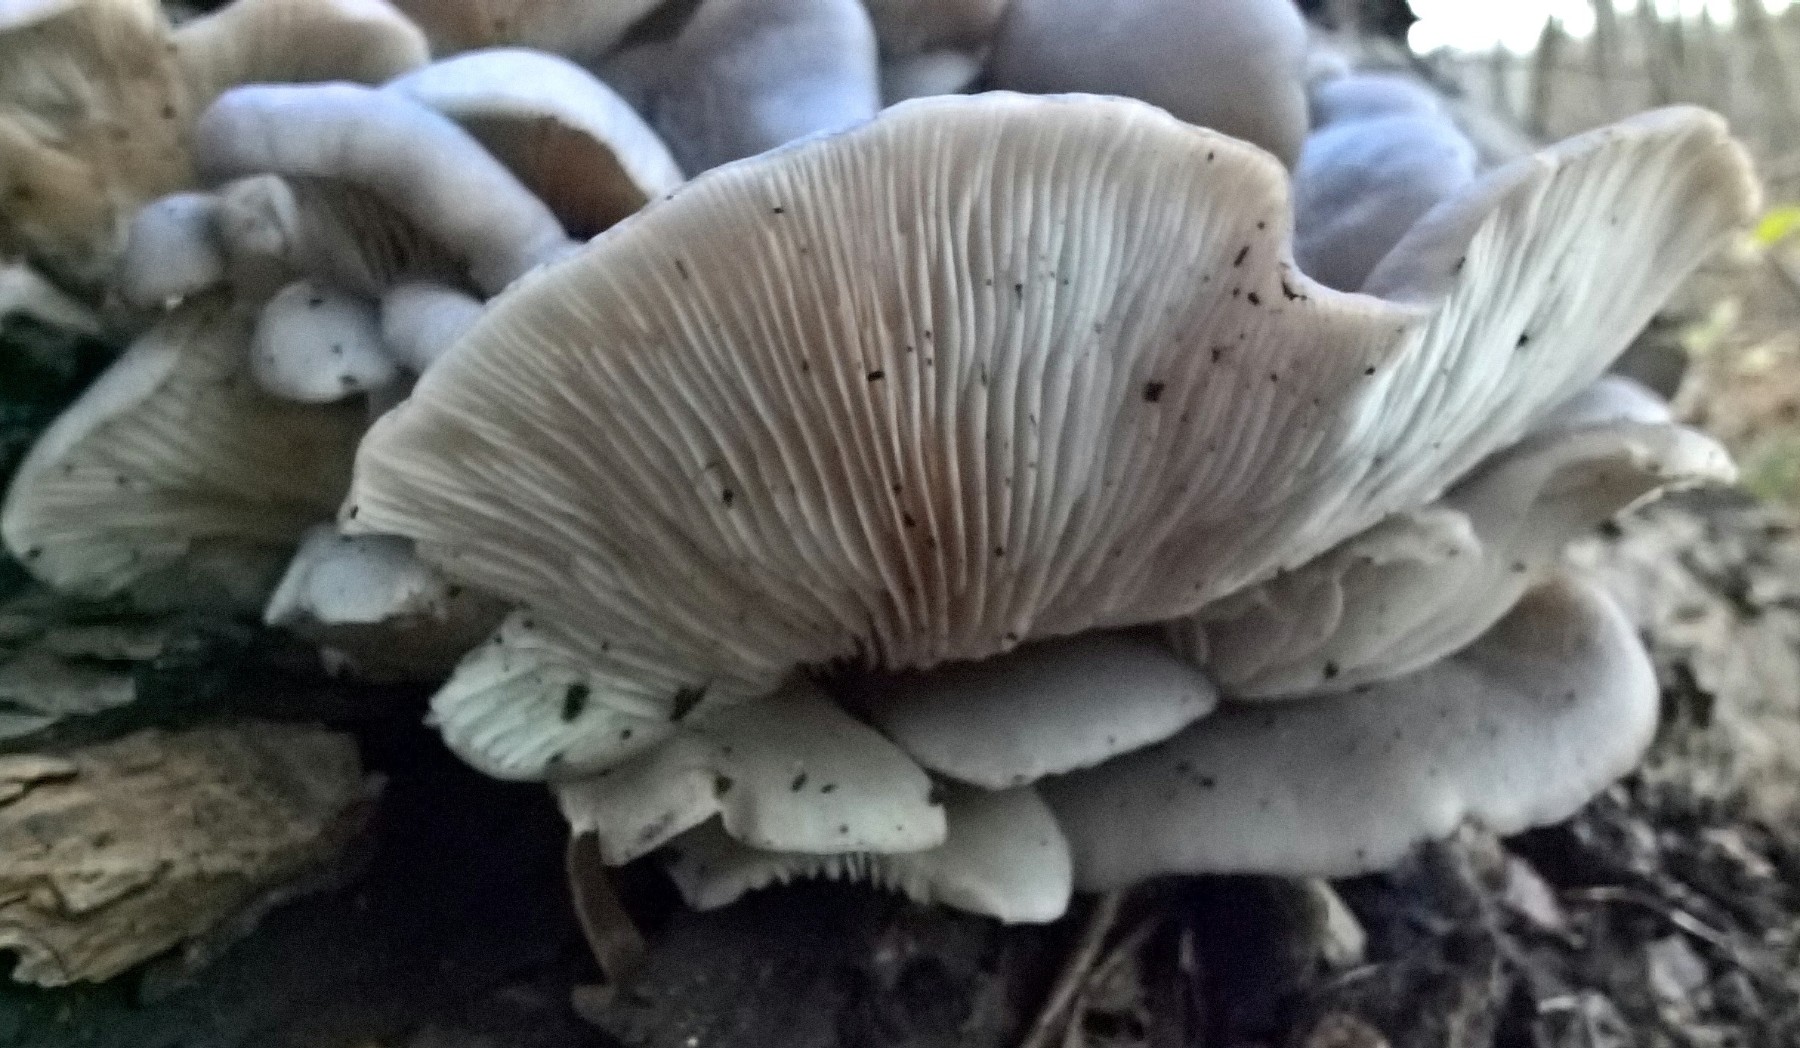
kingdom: Fungi
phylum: Basidiomycota
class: Agaricomycetes
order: Agaricales
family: Pleurotaceae
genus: Pleurotus
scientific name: Pleurotus ostreatus
